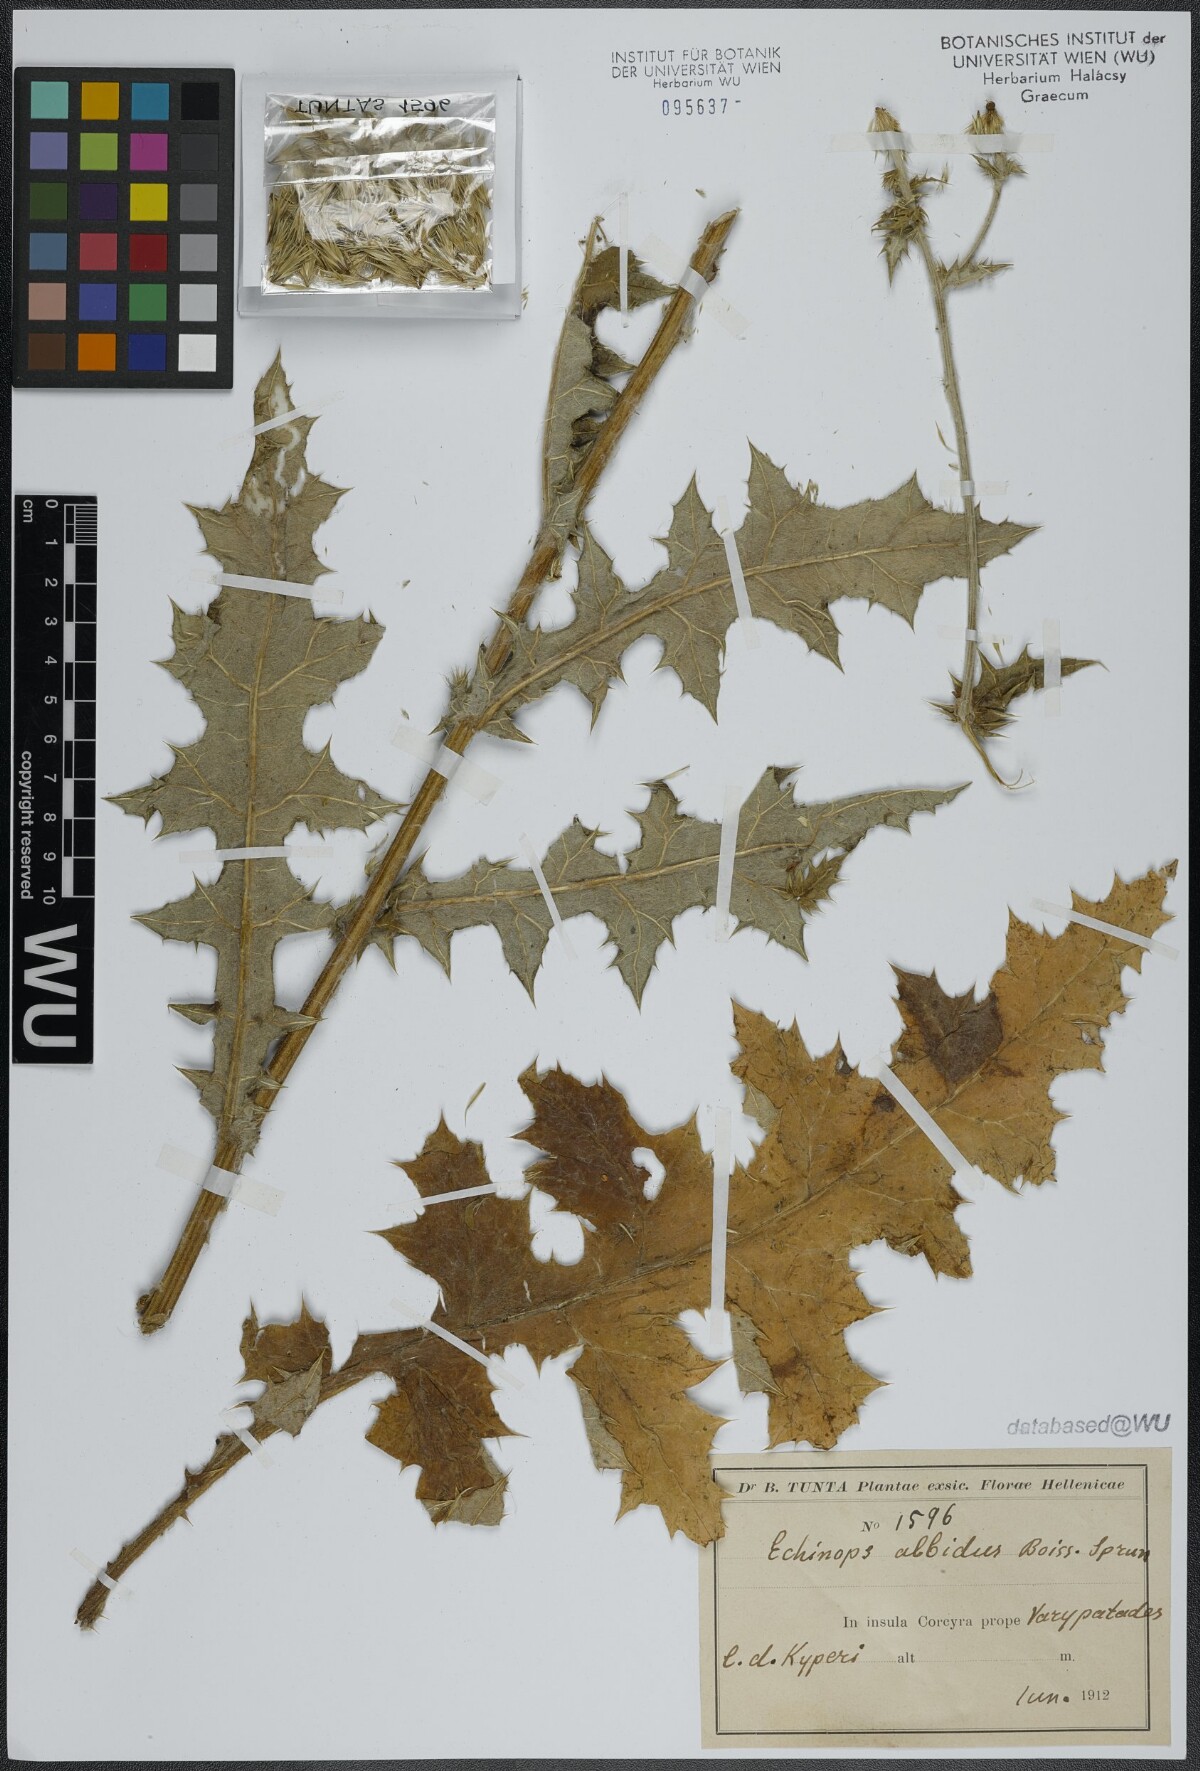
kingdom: Plantae
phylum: Tracheophyta
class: Magnoliopsida
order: Asterales
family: Asteraceae
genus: Echinops
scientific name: Echinops ritro
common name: Globe thistle
